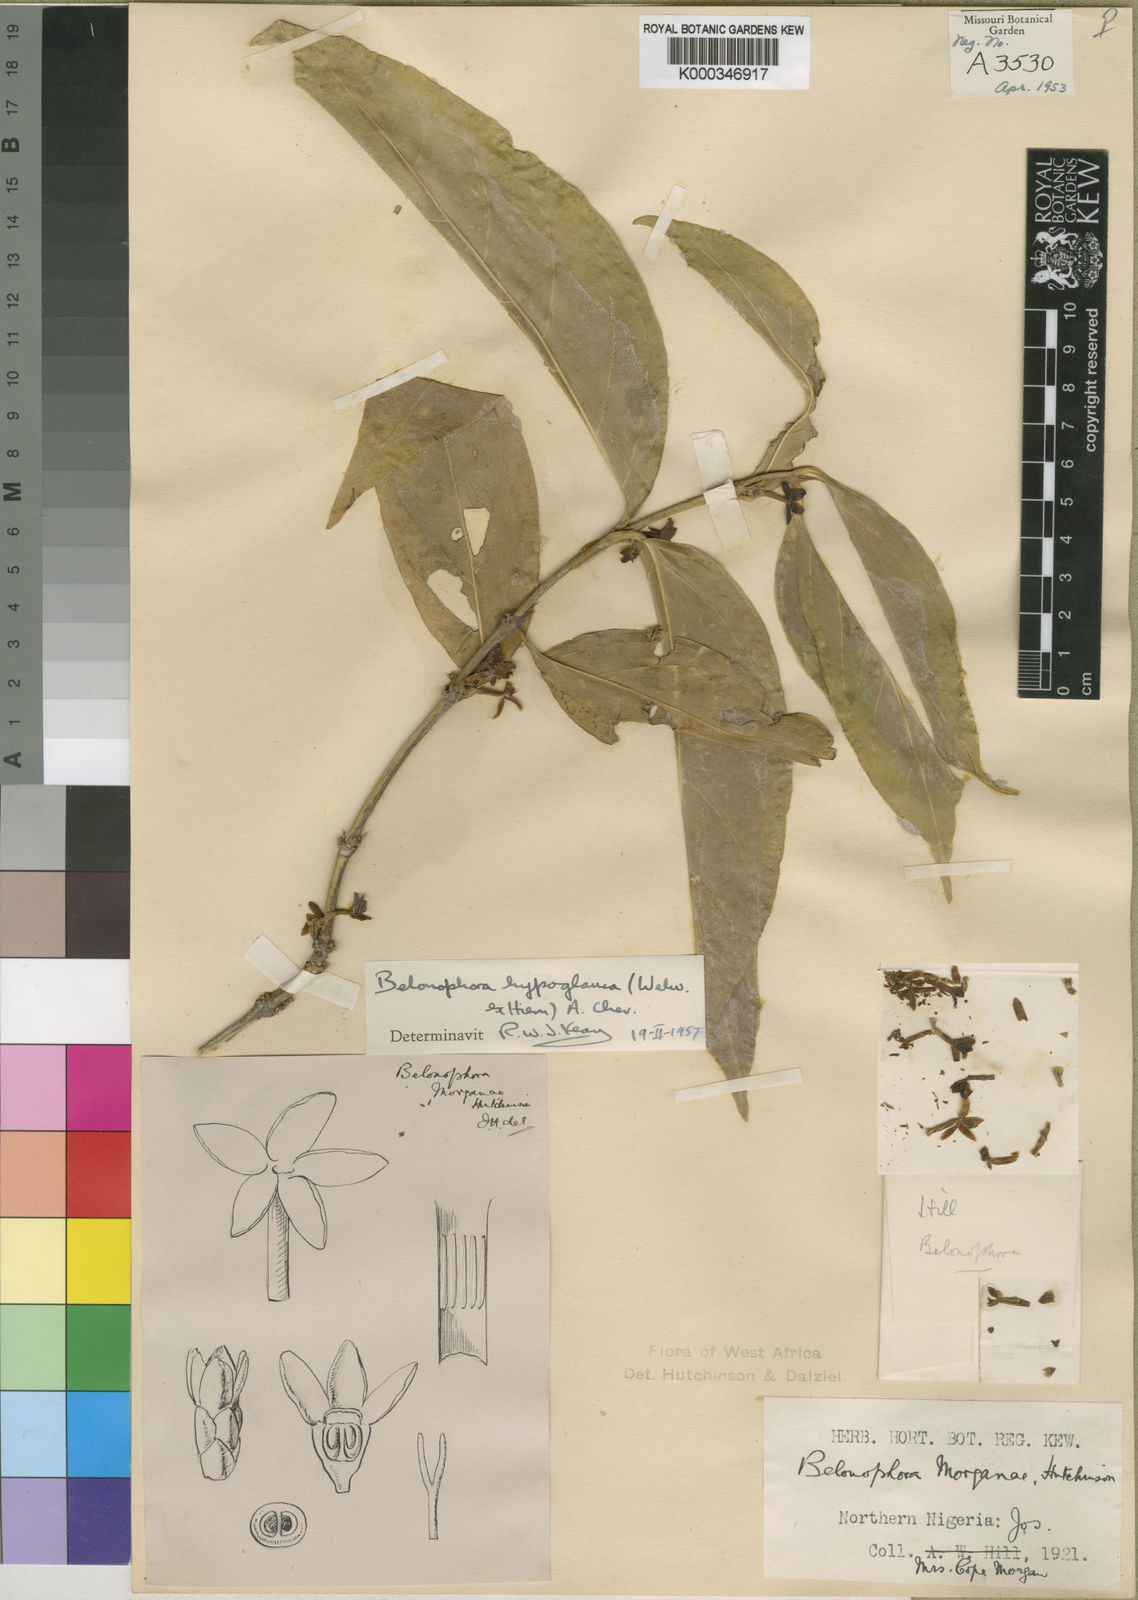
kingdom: Plantae
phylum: Tracheophyta
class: Magnoliopsida
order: Gentianales
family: Rubiaceae
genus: Belonophora
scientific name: Belonophora coffeoides
